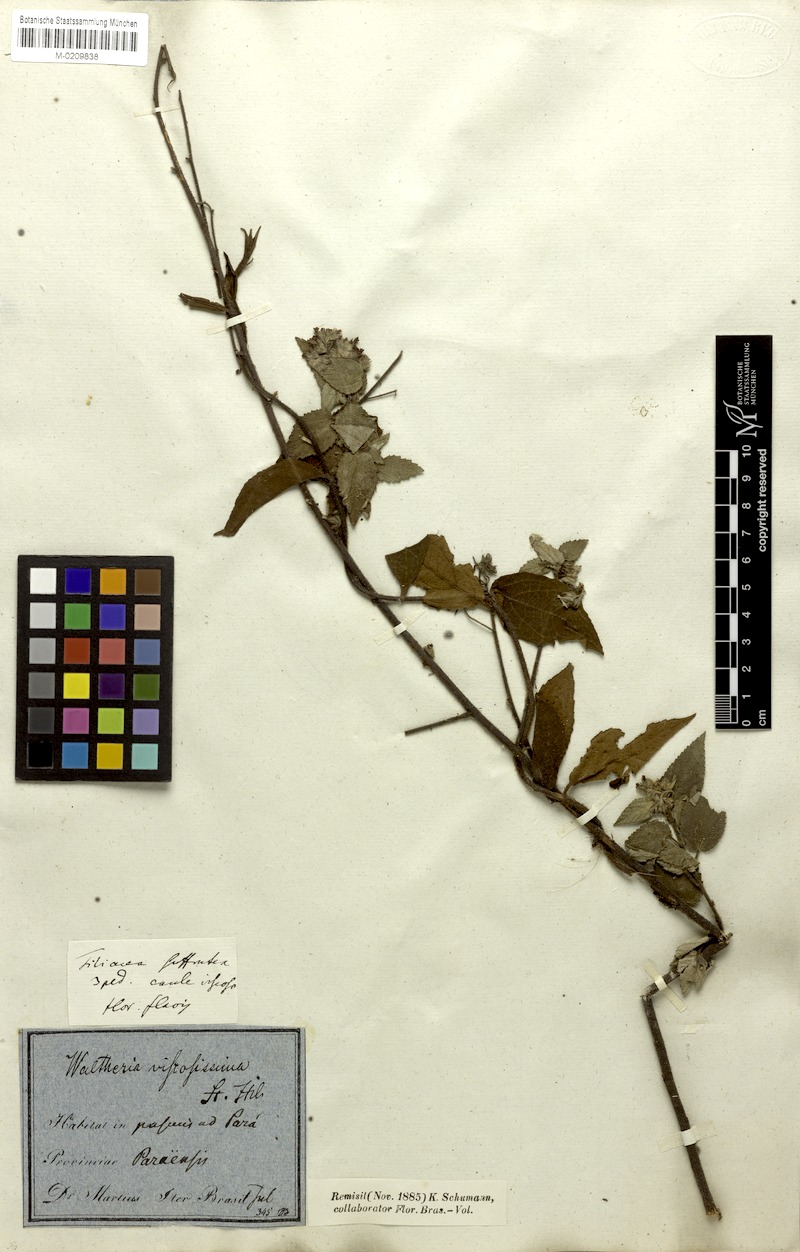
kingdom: Plantae
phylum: Tracheophyta
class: Magnoliopsida
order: Malvales
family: Malvaceae
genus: Waltheria
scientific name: Waltheria viscosissima
